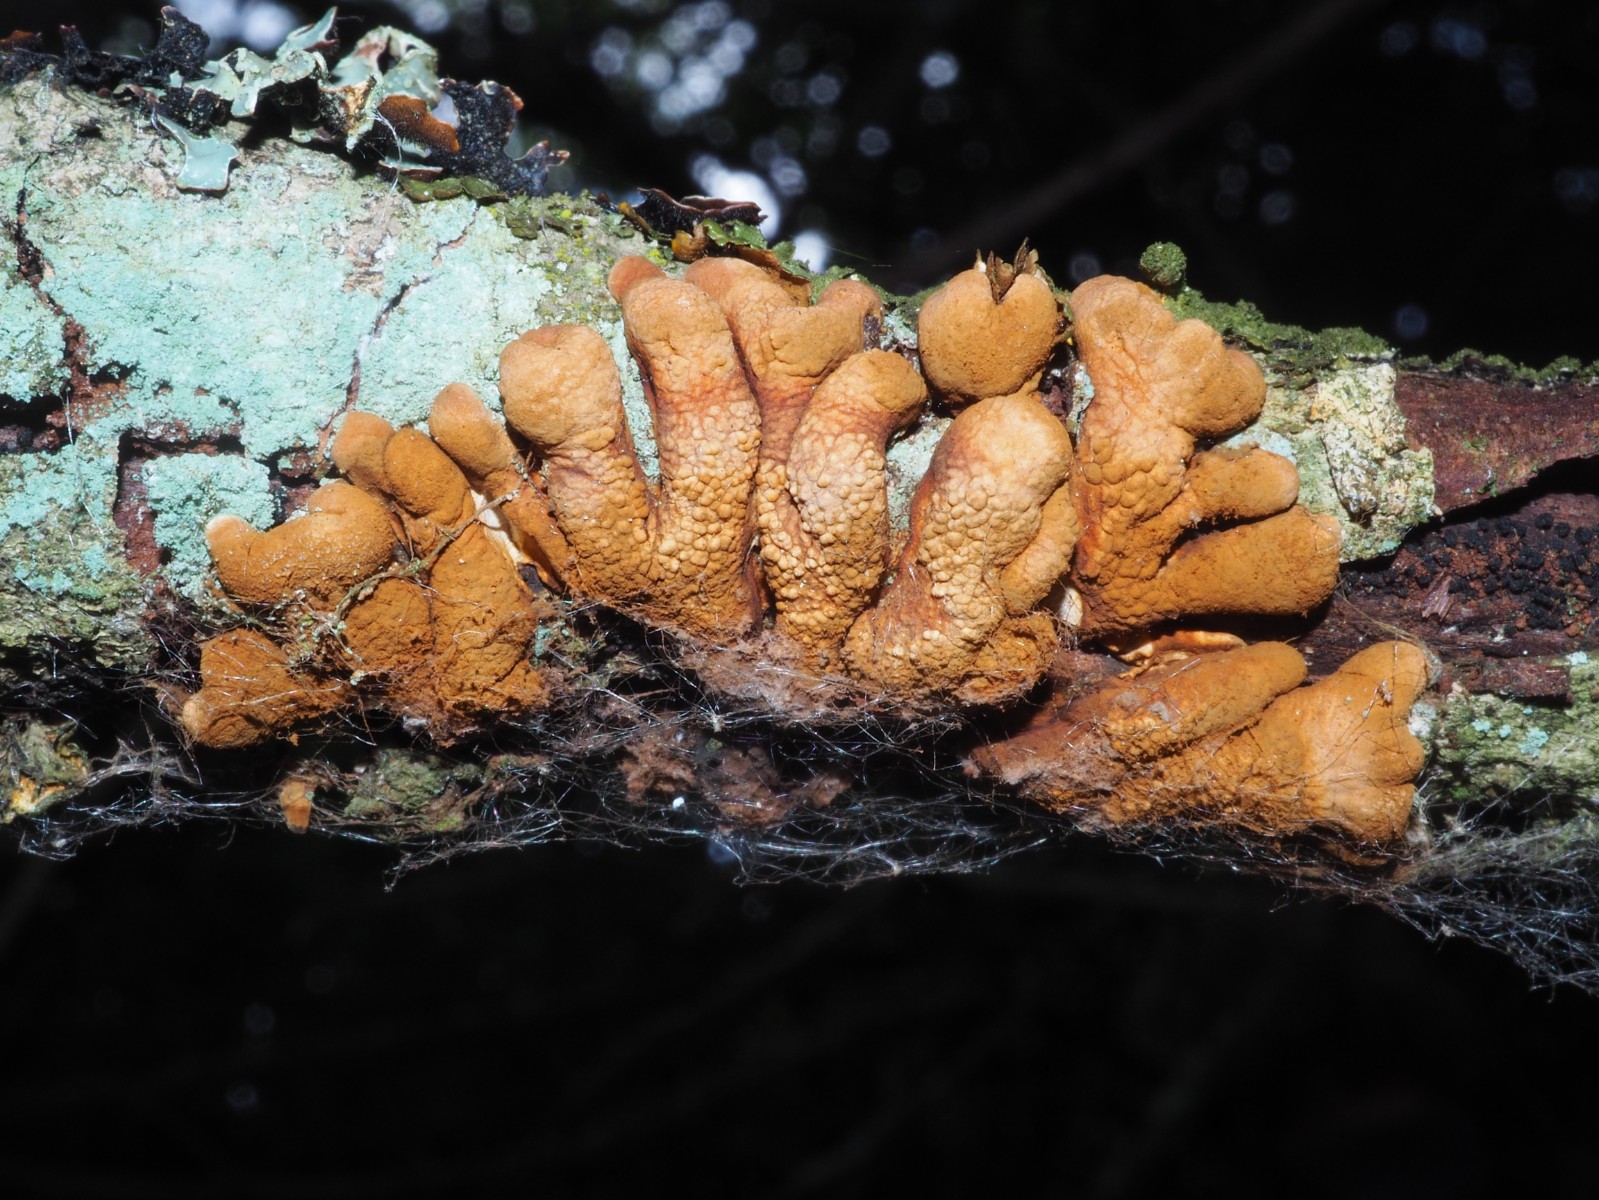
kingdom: Fungi
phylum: Ascomycota
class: Sordariomycetes
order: Hypocreales
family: Hypocreaceae
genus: Hypocreopsis
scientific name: Hypocreopsis lichenoides
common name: pilfinger
